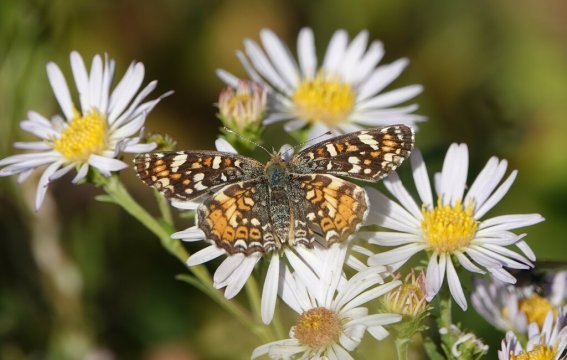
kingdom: Animalia
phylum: Arthropoda
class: Insecta
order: Lepidoptera
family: Nymphalidae
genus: Phyciodes
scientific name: Phyciodes tharos
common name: Field Crescent
